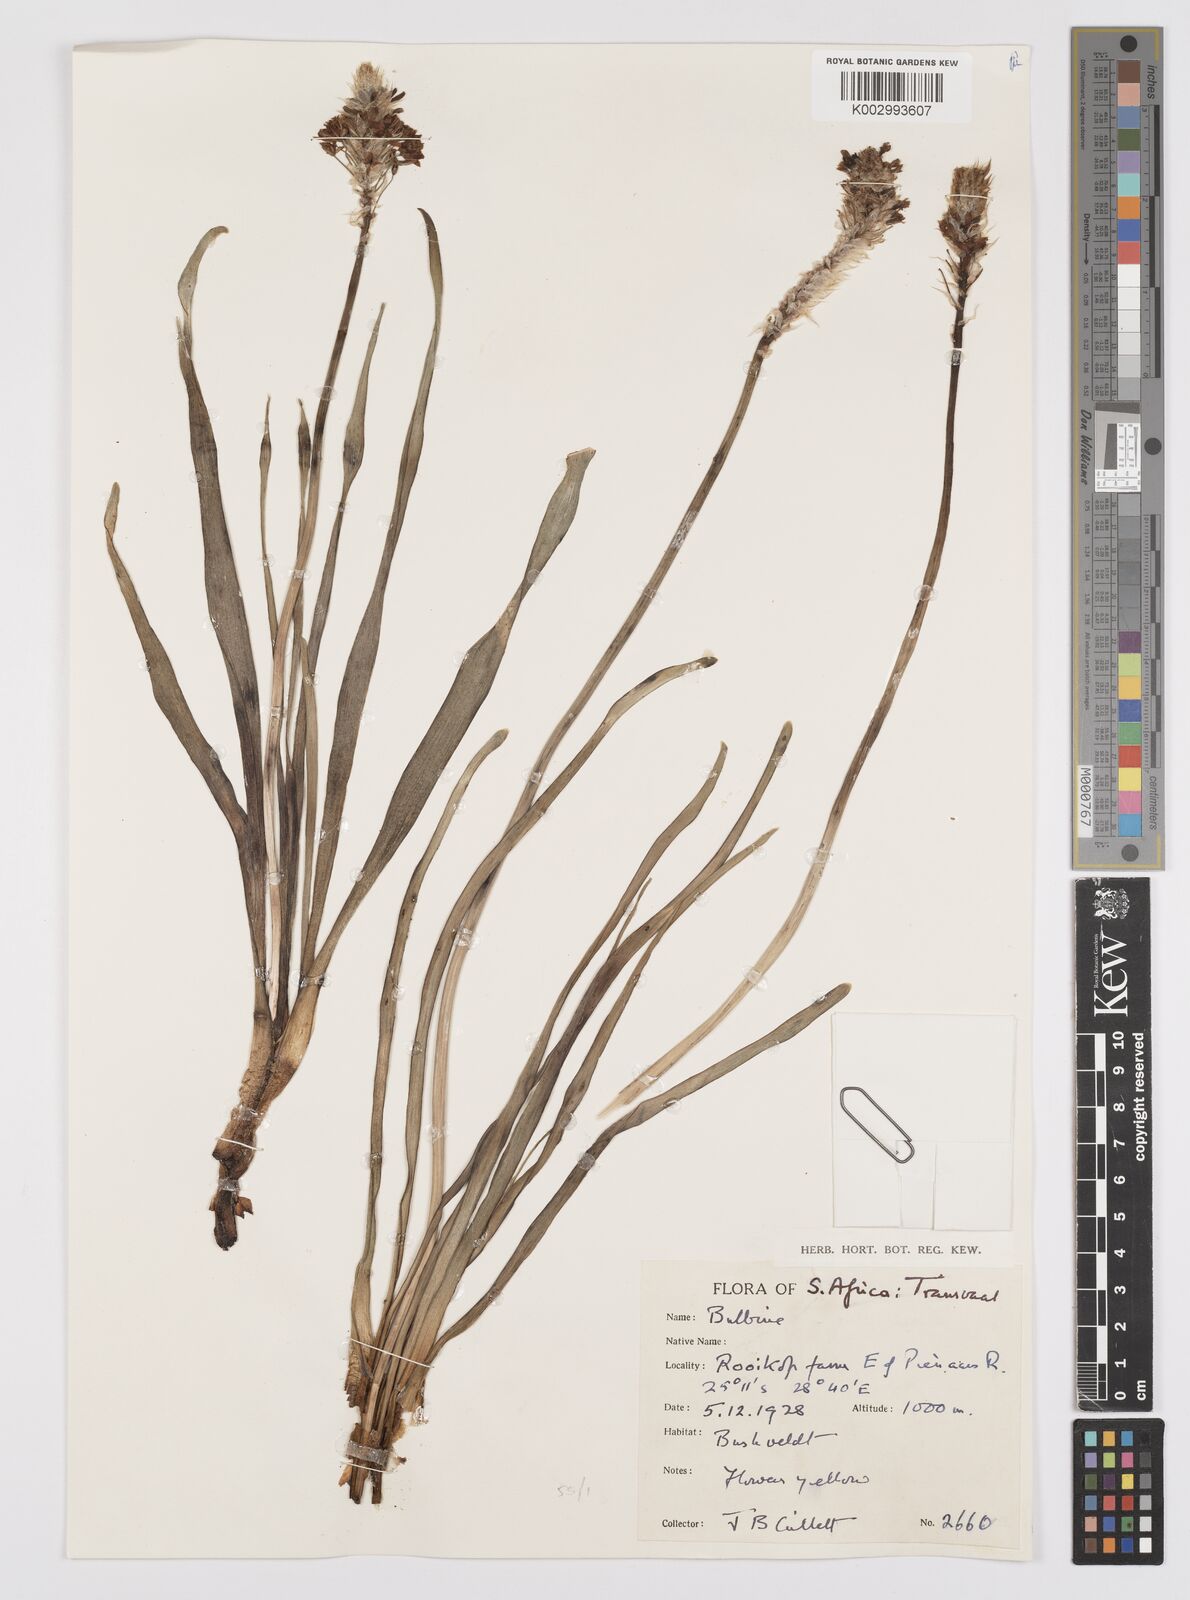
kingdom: Plantae
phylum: Tracheophyta
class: Liliopsida
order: Asparagales
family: Asphodelaceae
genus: Bulbine
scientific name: Bulbine narcissifolia
